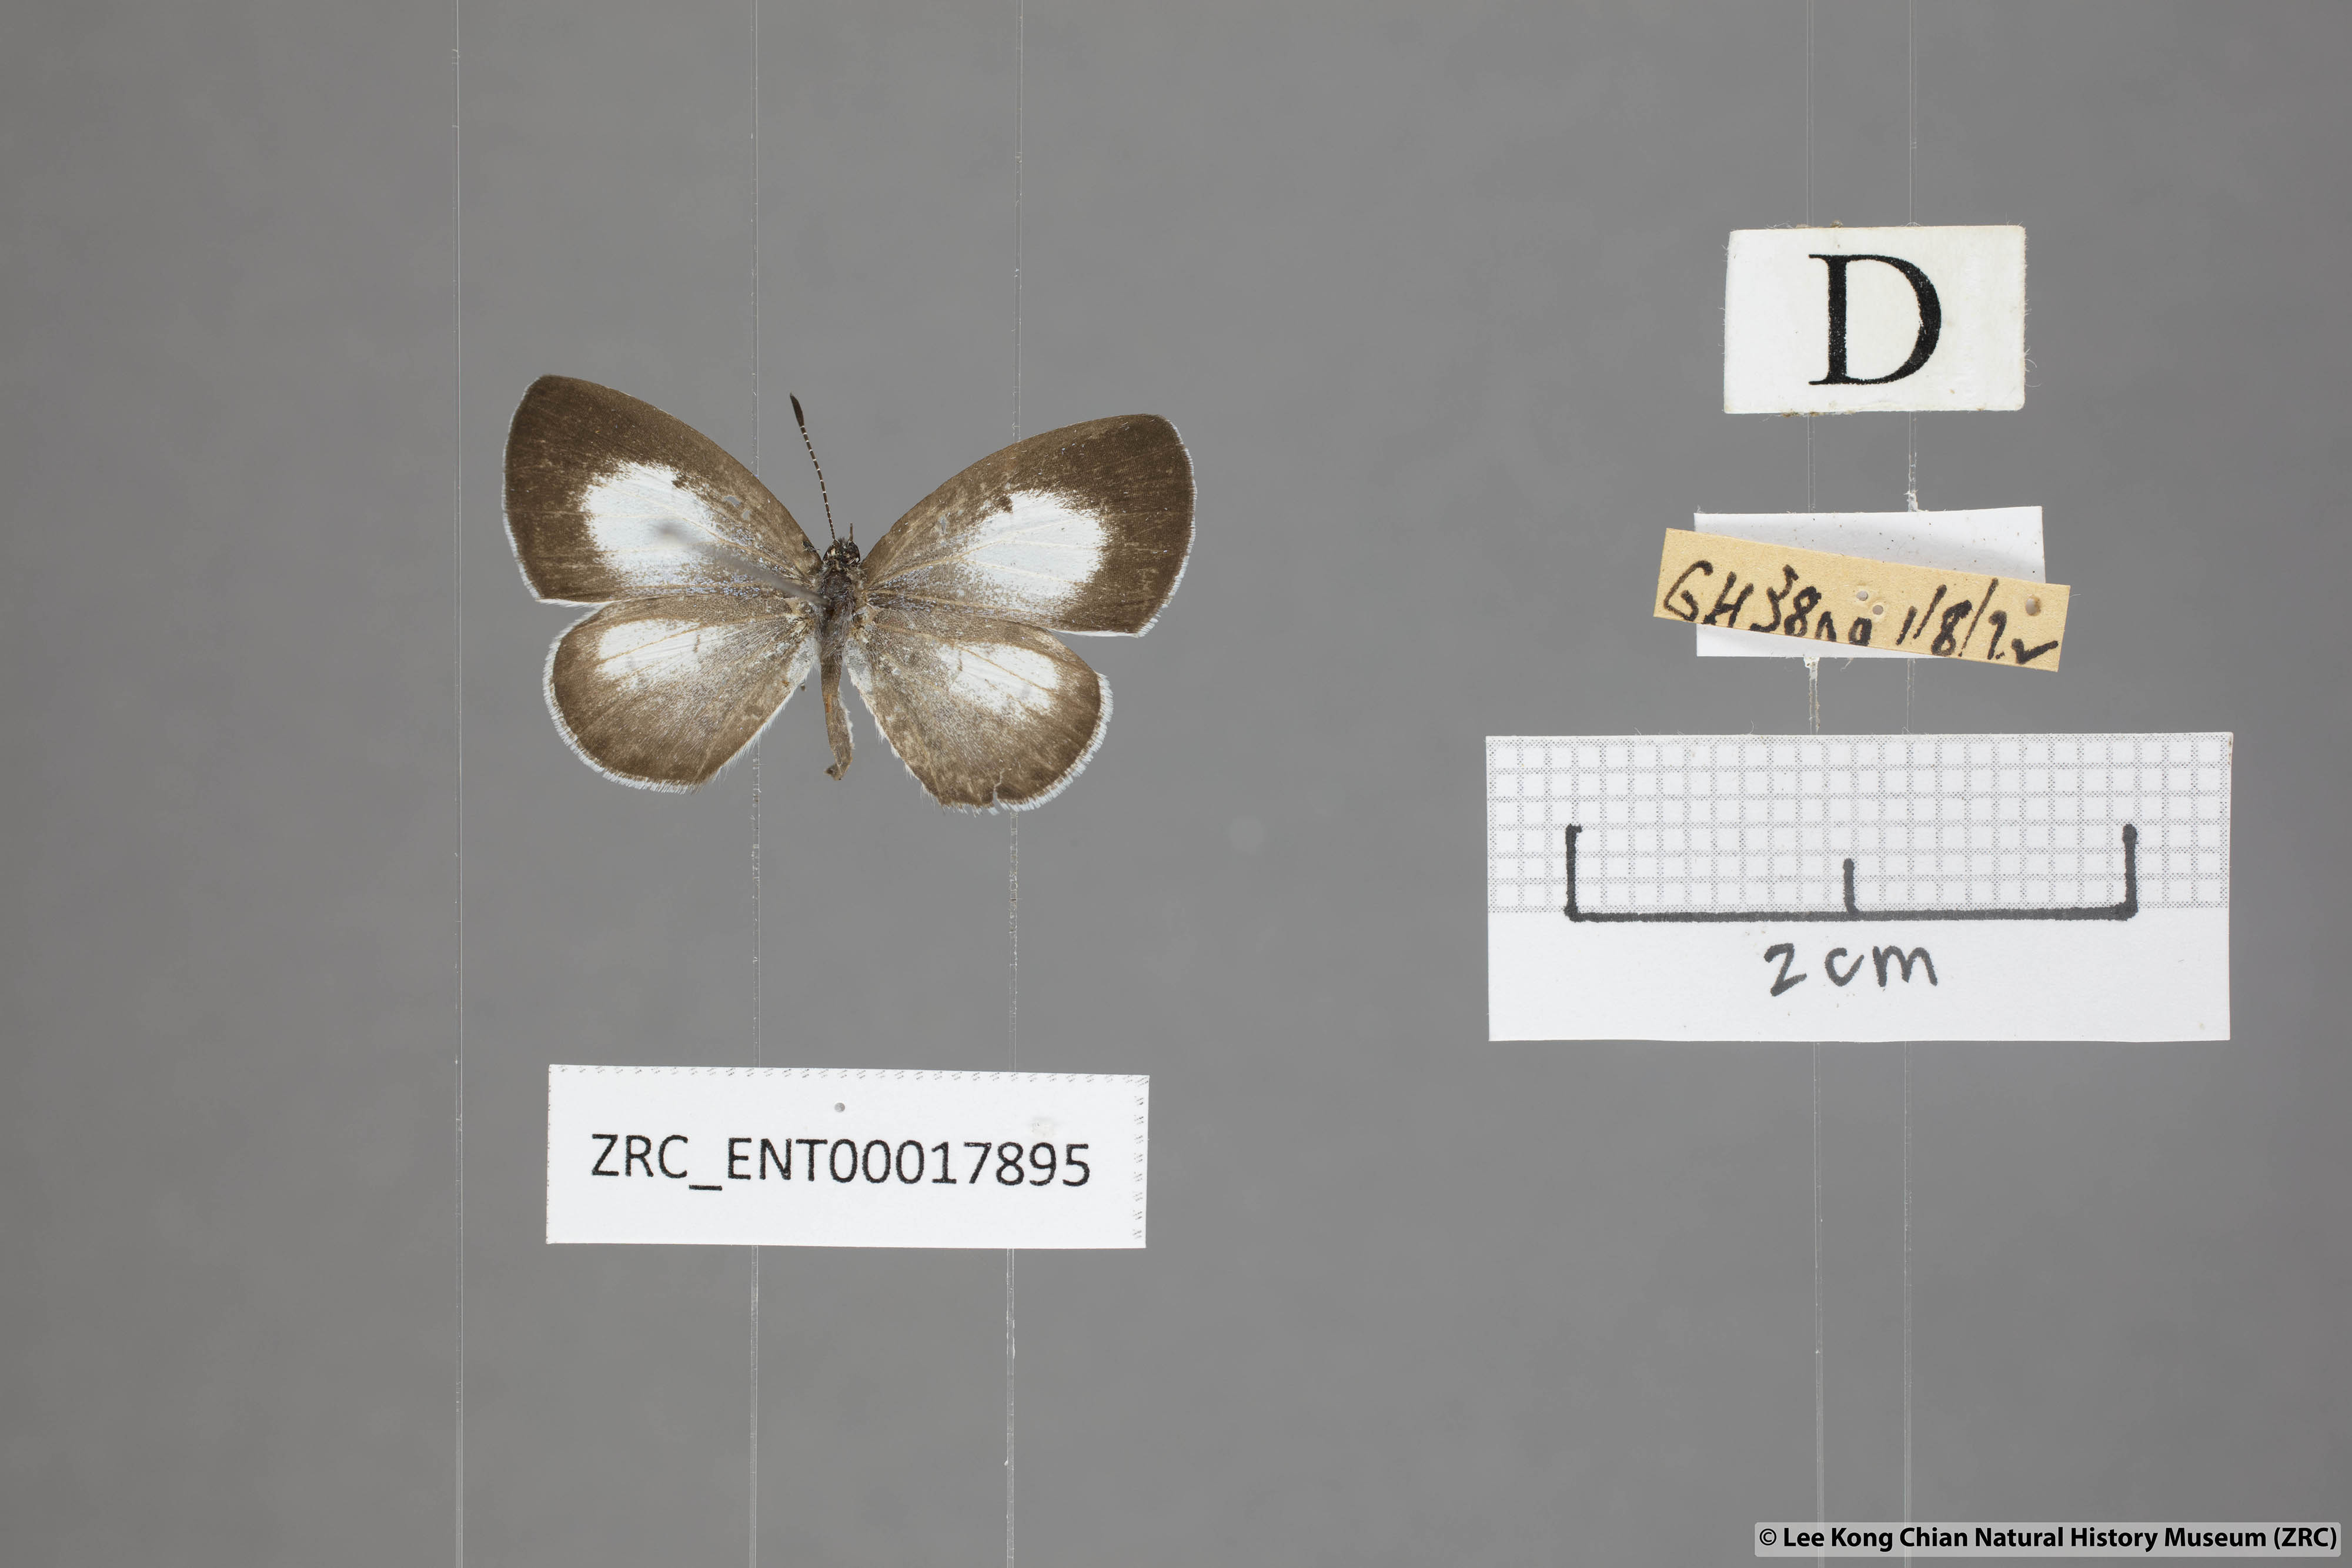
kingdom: Animalia
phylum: Arthropoda
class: Insecta
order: Lepidoptera
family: Lycaenidae
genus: Oreolyce
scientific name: Oreolyce
